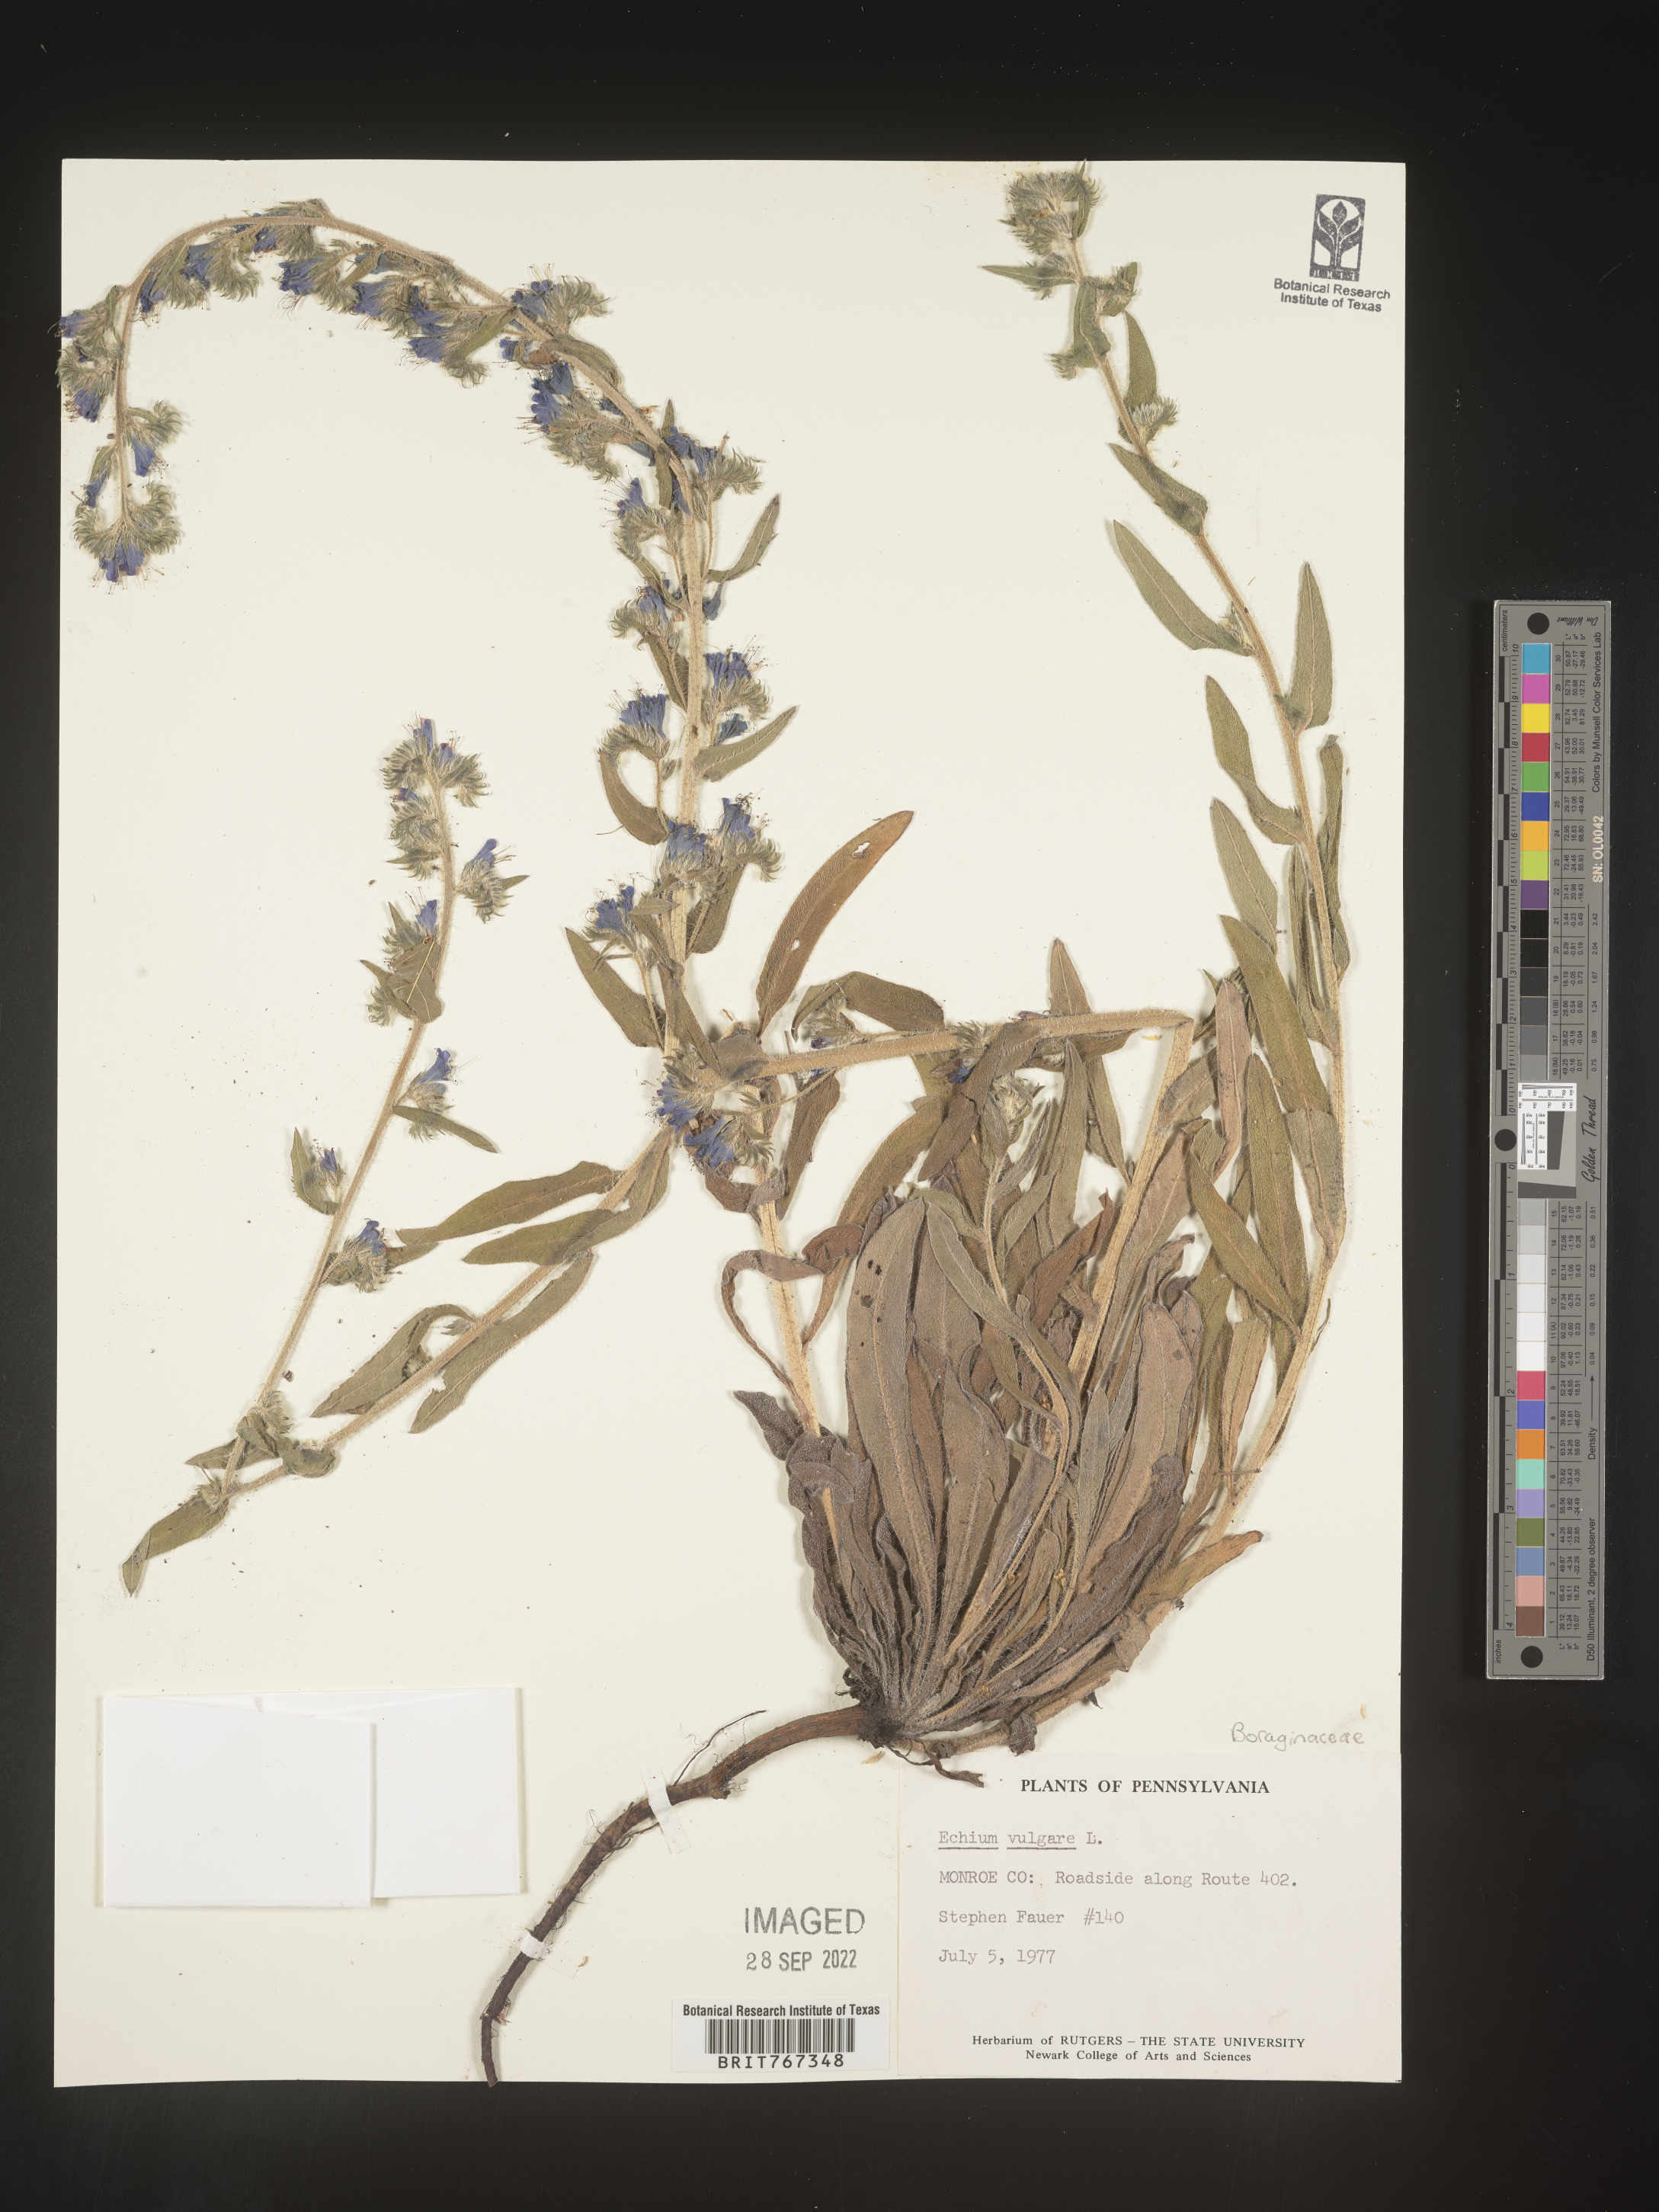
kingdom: Plantae
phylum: Tracheophyta
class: Magnoliopsida
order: Boraginales
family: Boraginaceae
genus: Echium
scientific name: Echium
